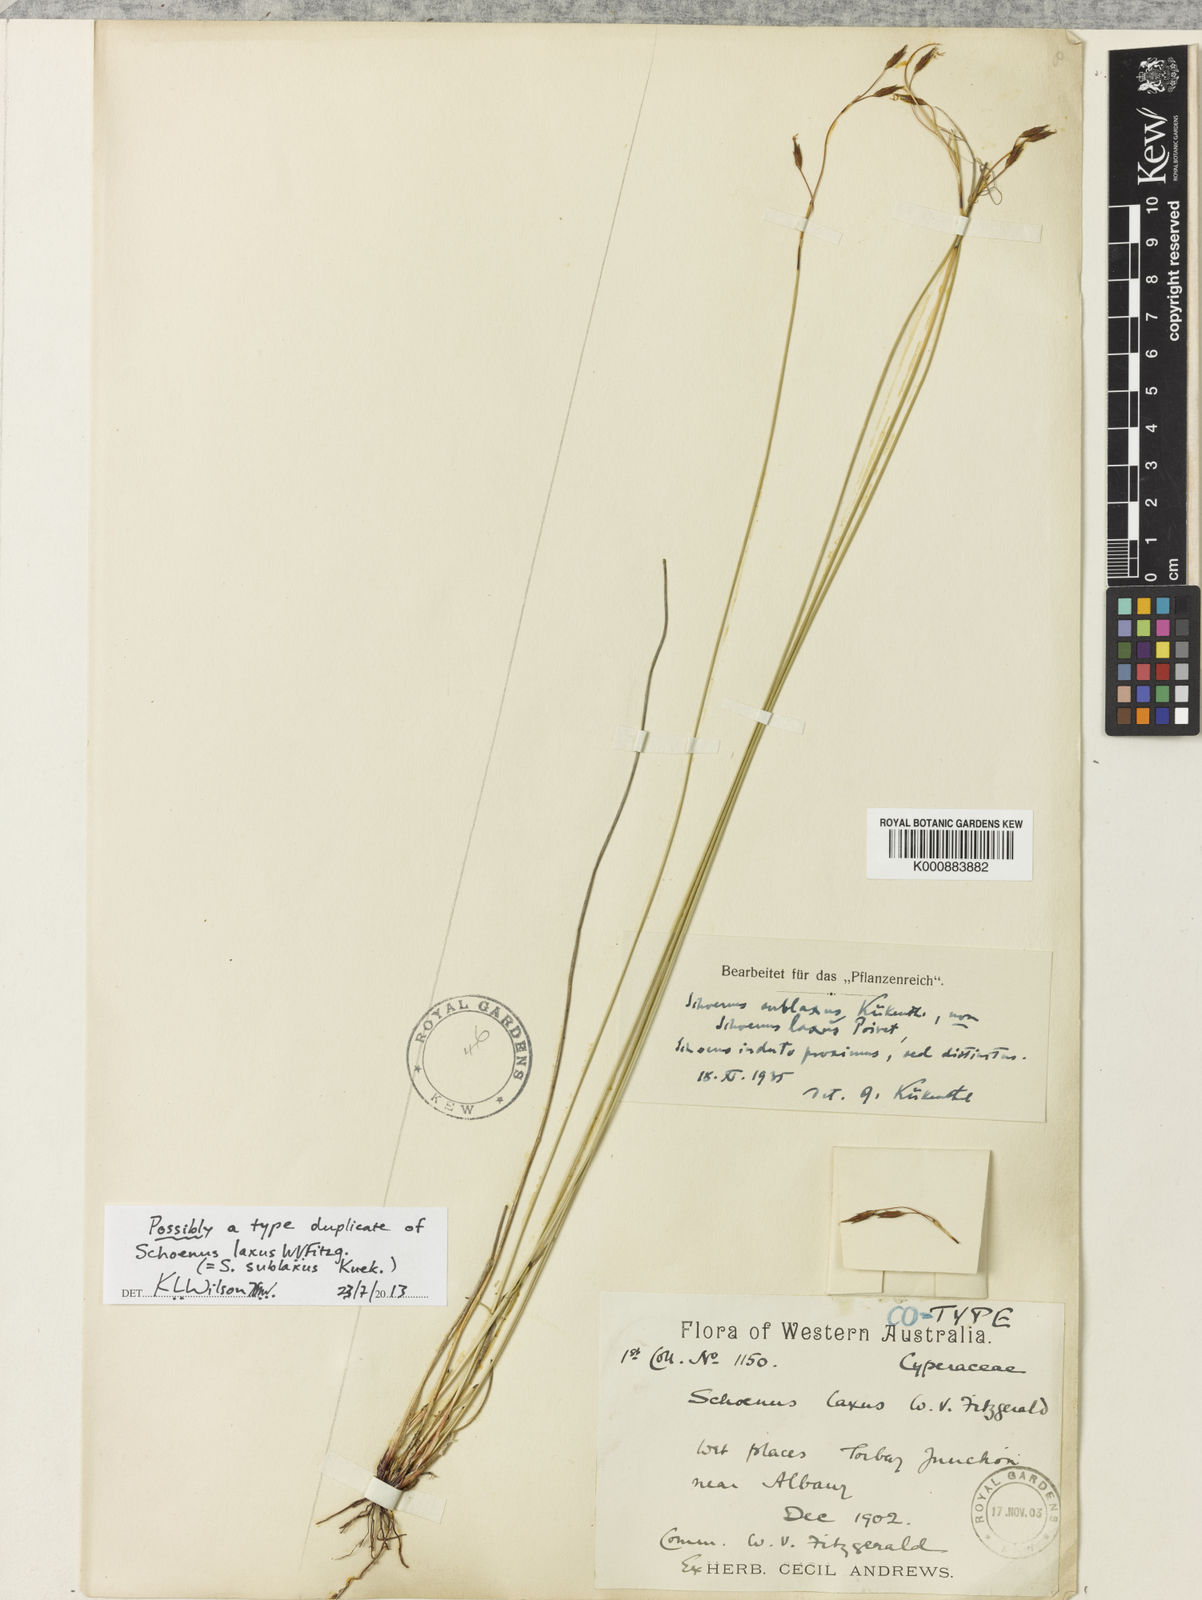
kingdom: Plantae
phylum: Tracheophyta
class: Liliopsida
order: Poales
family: Cyperaceae
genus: Schoenus
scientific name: Schoenus
